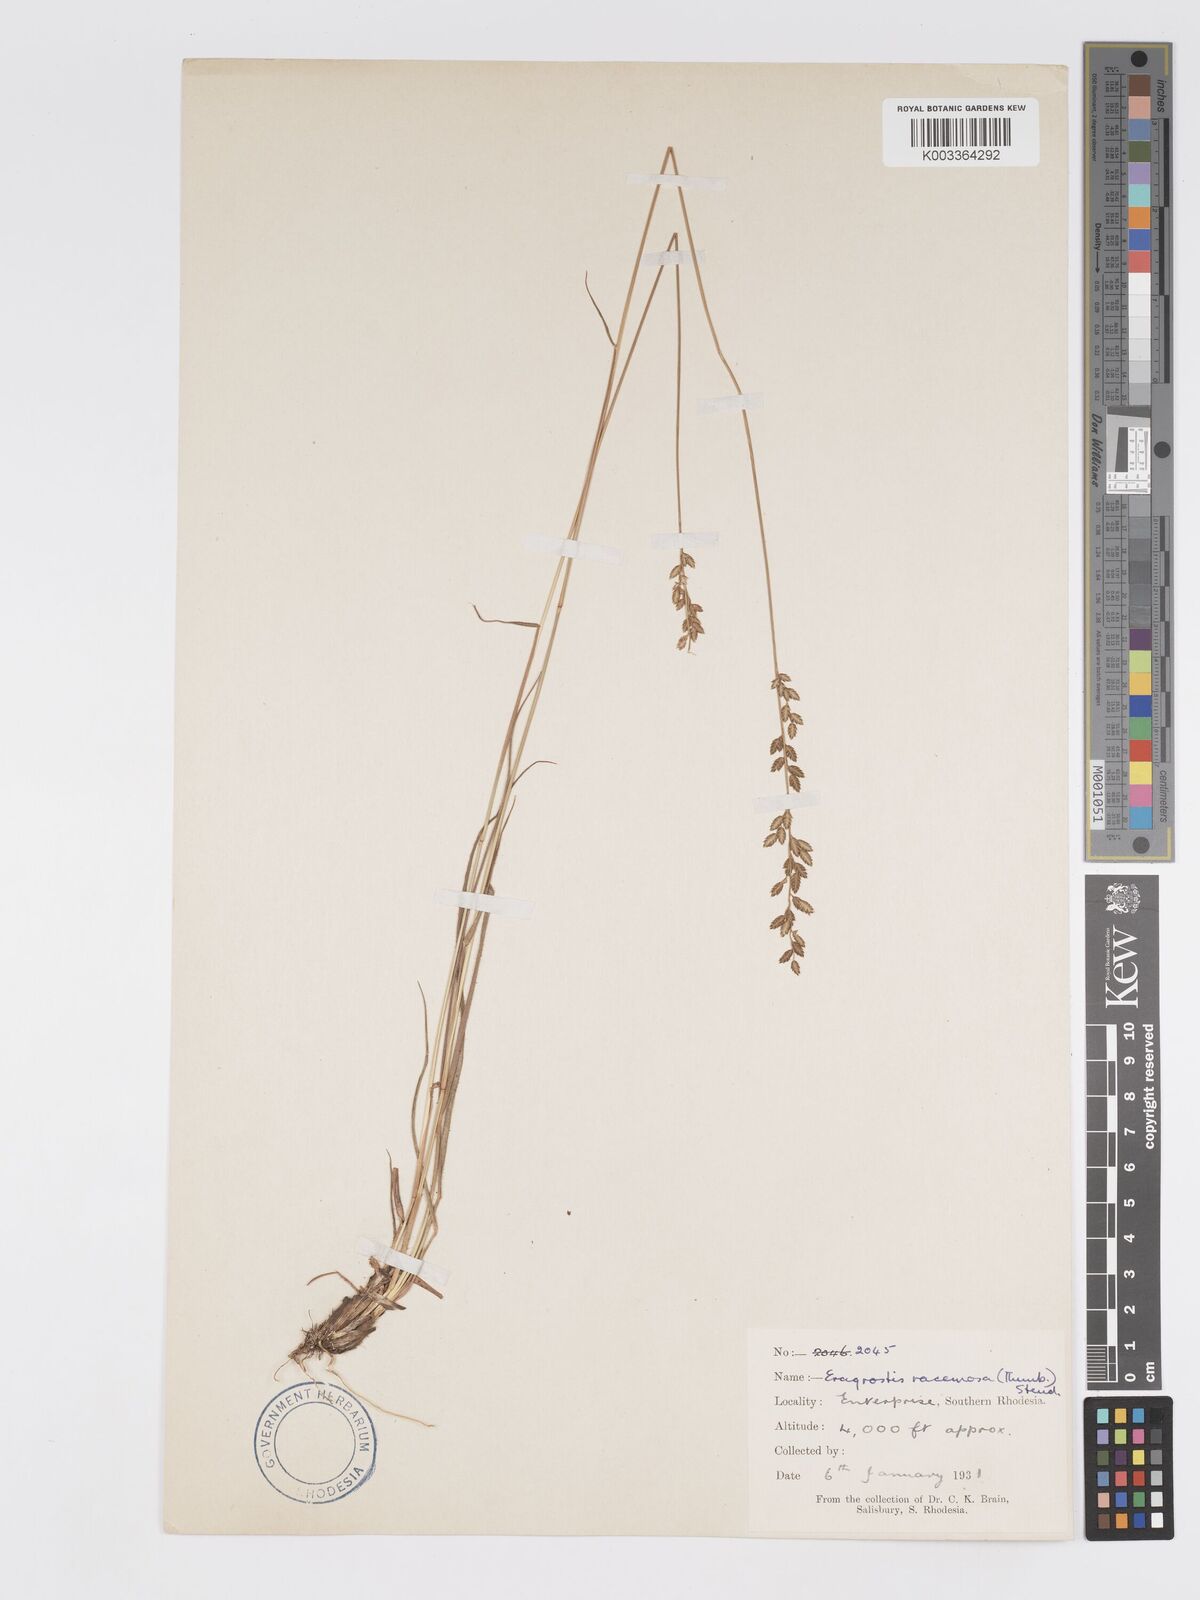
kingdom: Plantae
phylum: Tracheophyta
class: Liliopsida
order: Poales
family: Poaceae
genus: Eragrostis
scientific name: Eragrostis racemosa
